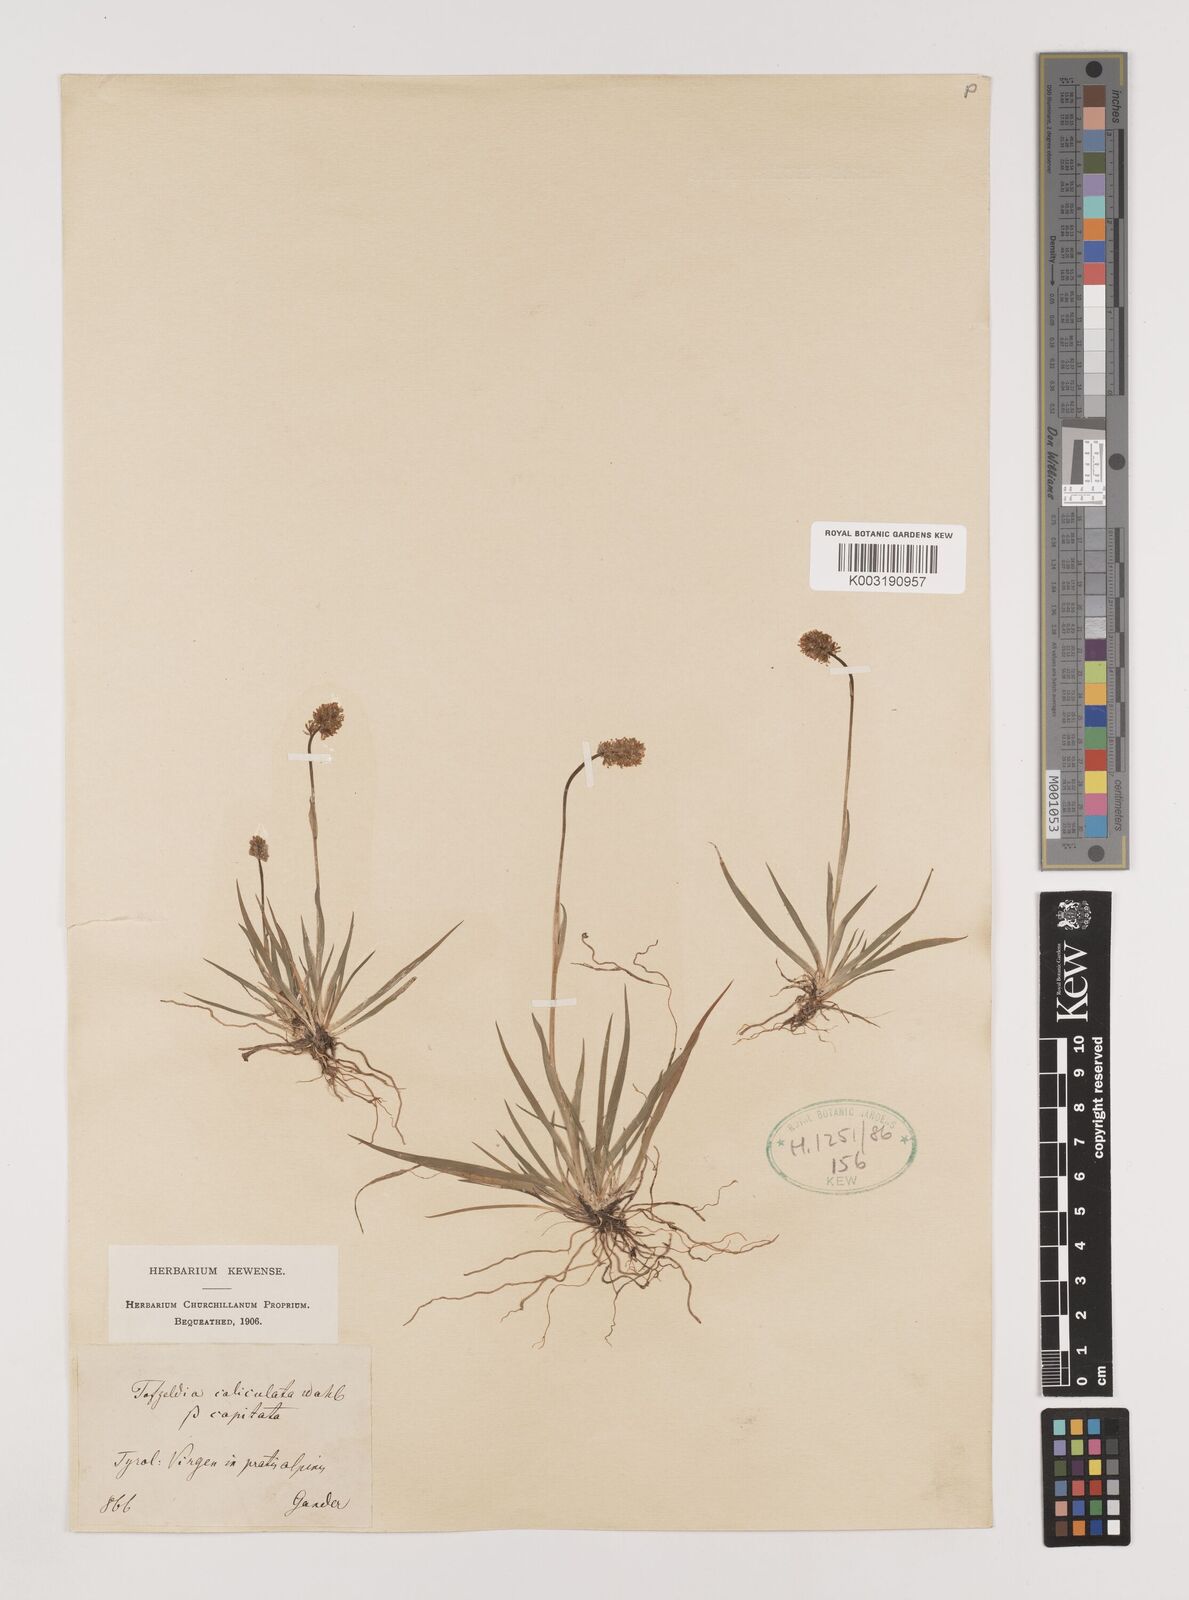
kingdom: Plantae
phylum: Tracheophyta
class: Liliopsida
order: Alismatales
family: Tofieldiaceae
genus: Tofieldia
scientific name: Tofieldia calyculata
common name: German-asphodel
